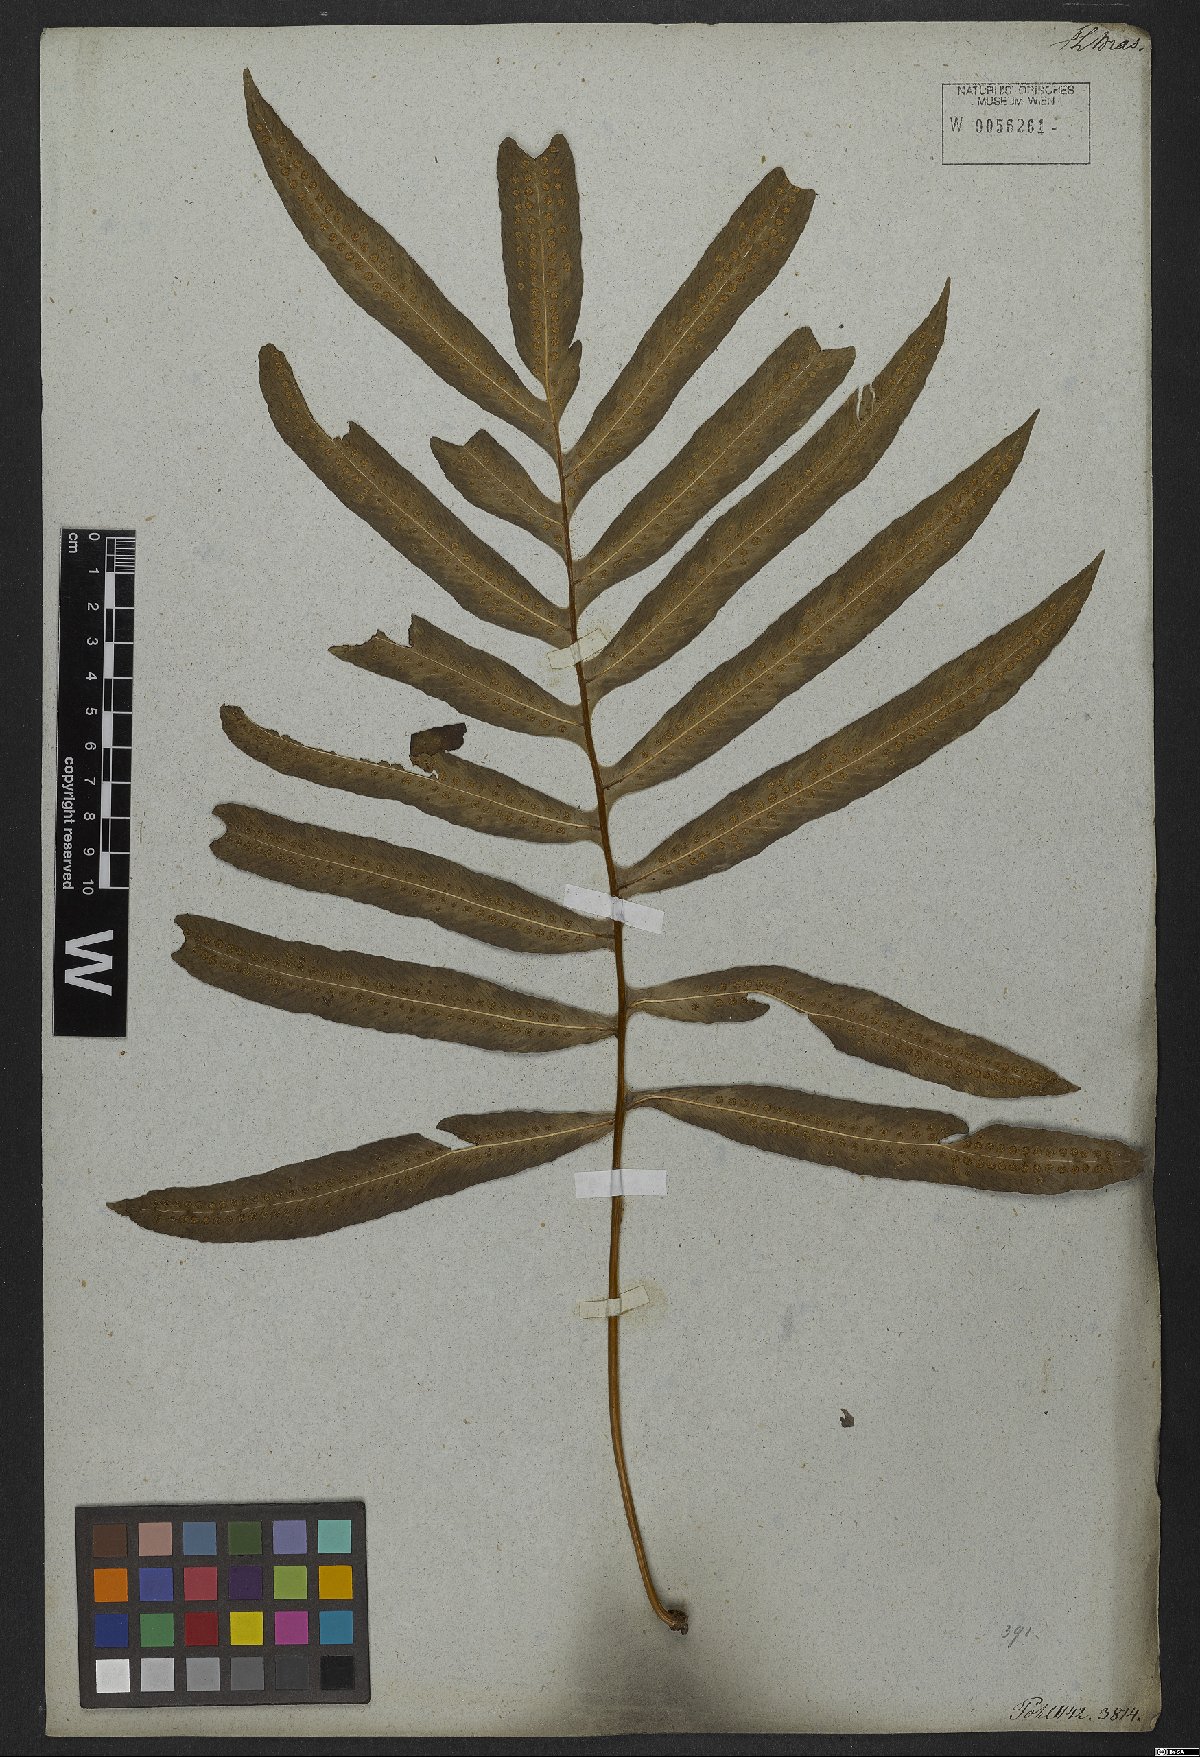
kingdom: Plantae
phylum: Tracheophyta
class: Polypodiopsida
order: Polypodiales
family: Polypodiaceae
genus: Serpocaulon
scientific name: Serpocaulon attenuatum
